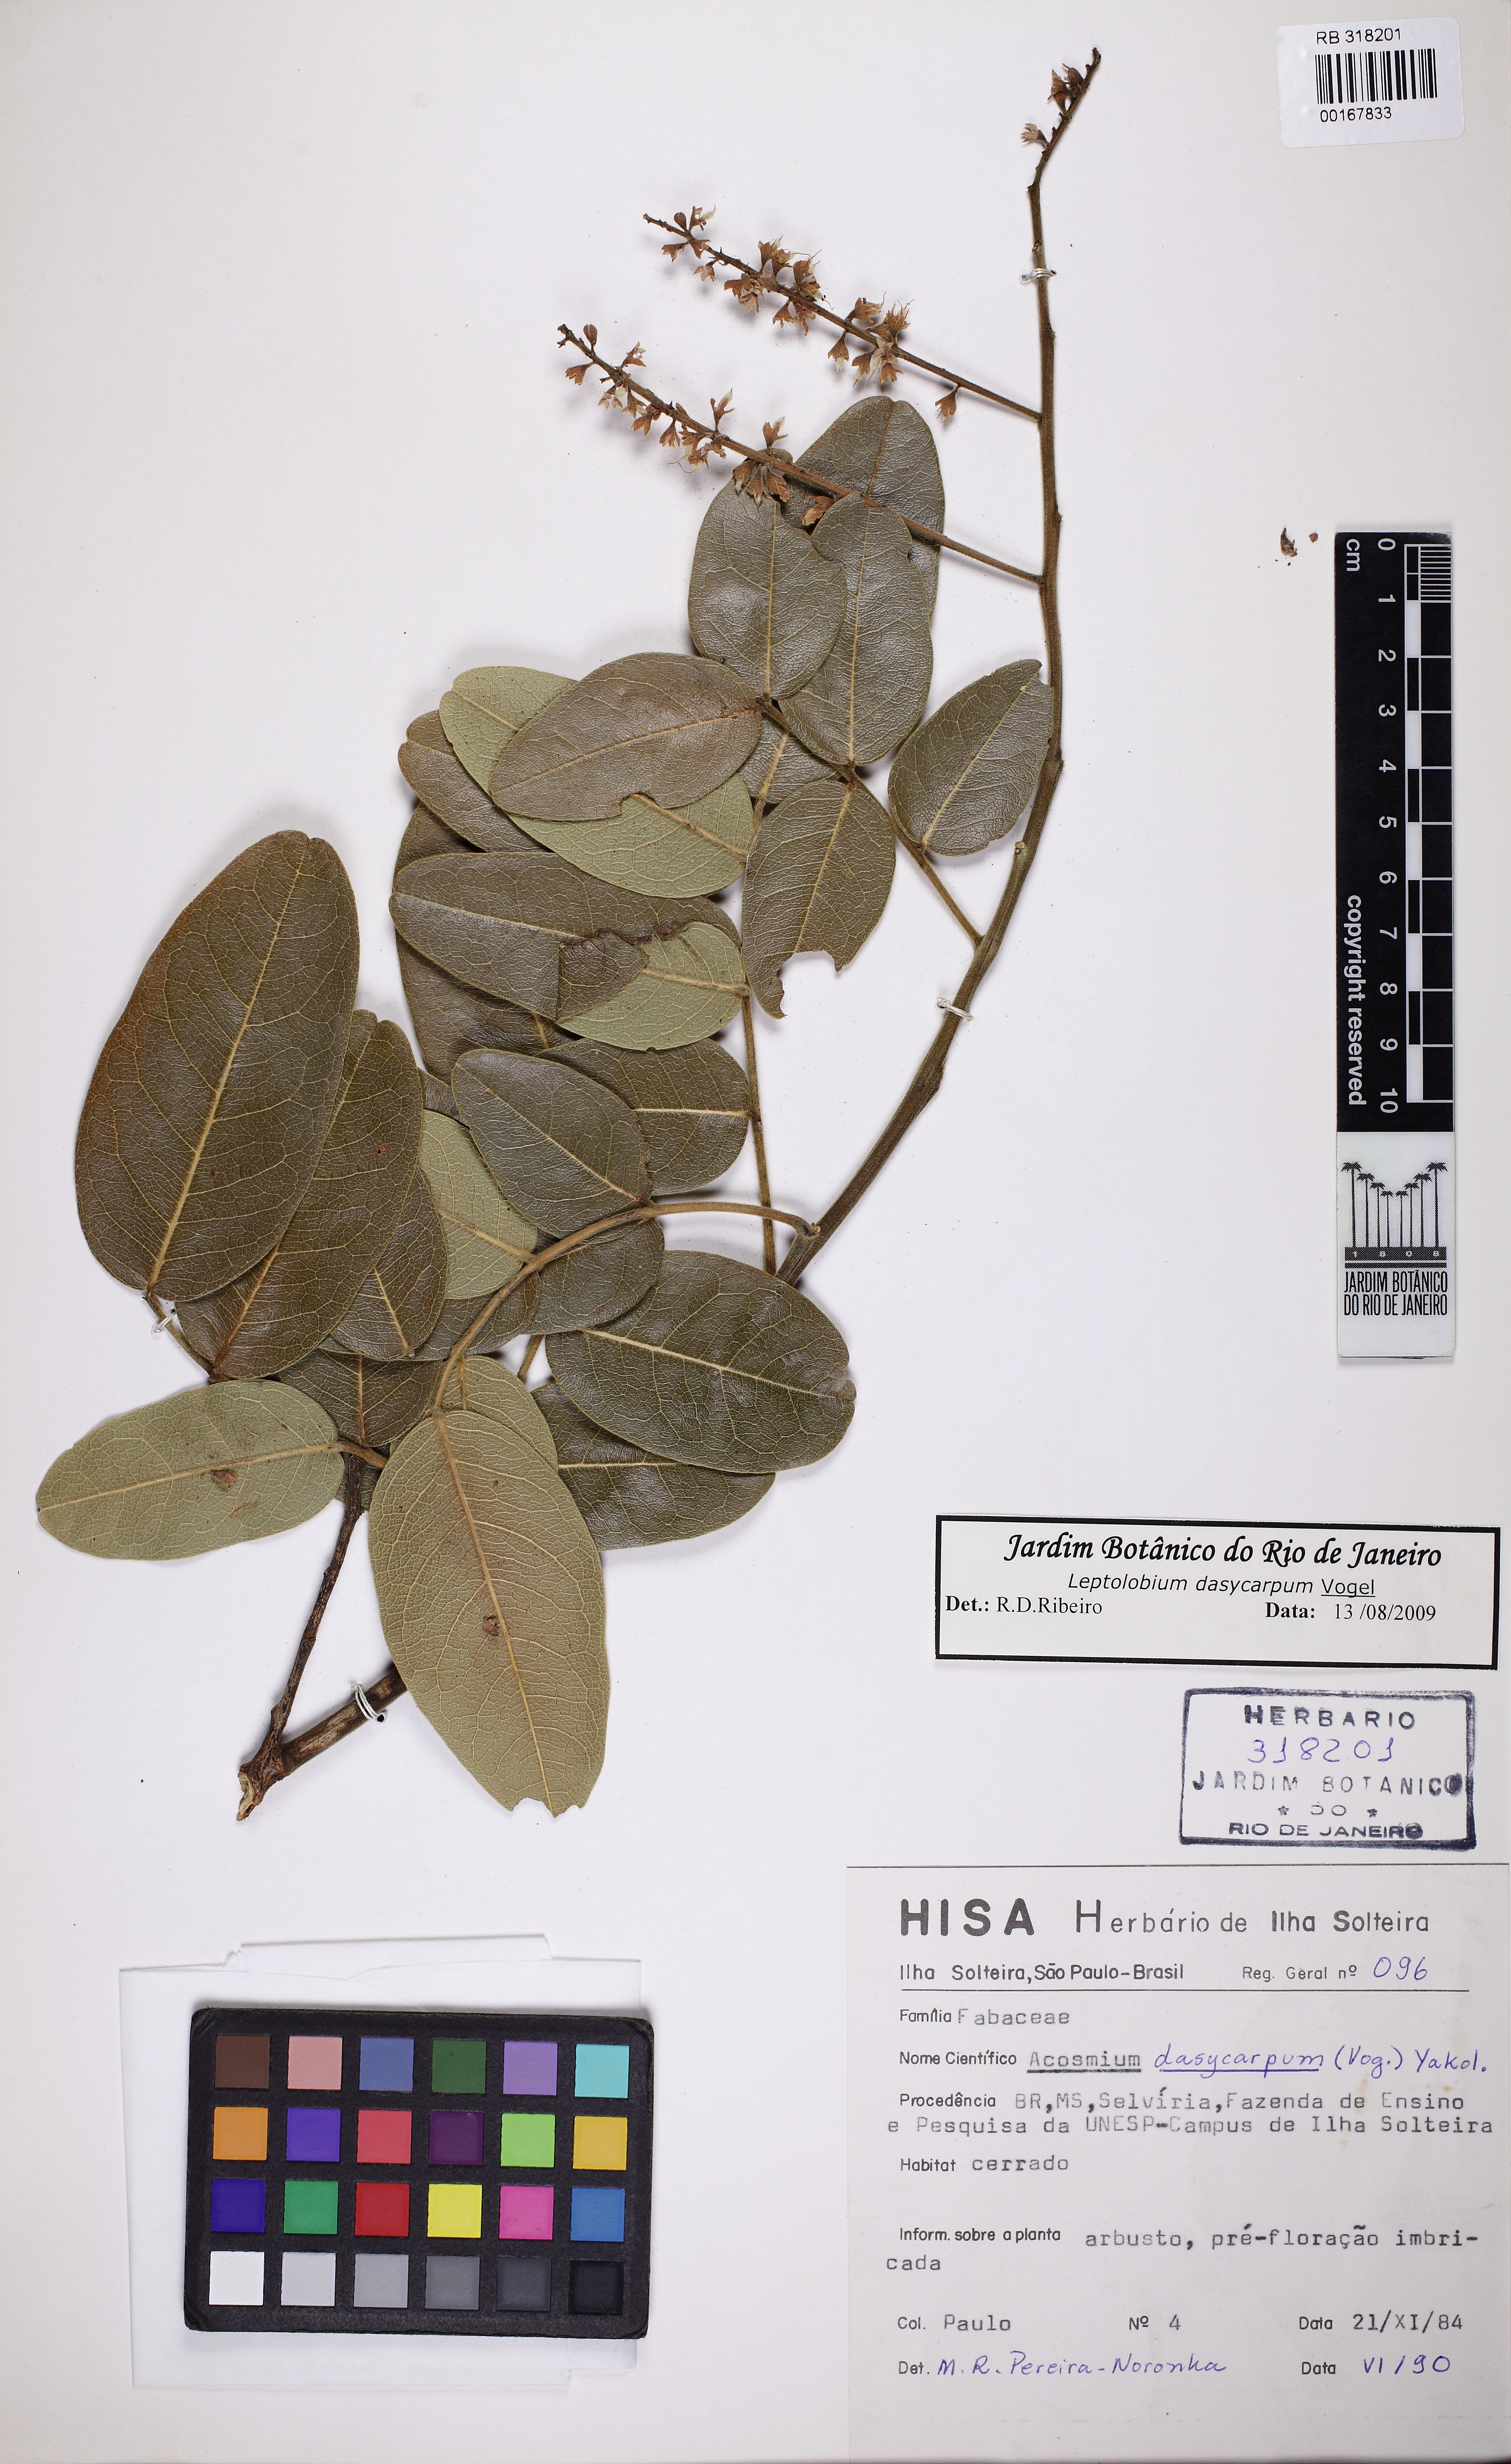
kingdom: Plantae
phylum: Tracheophyta
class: Magnoliopsida
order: Fabales
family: Fabaceae
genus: Leptolobium
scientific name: Leptolobium dasycarpum
